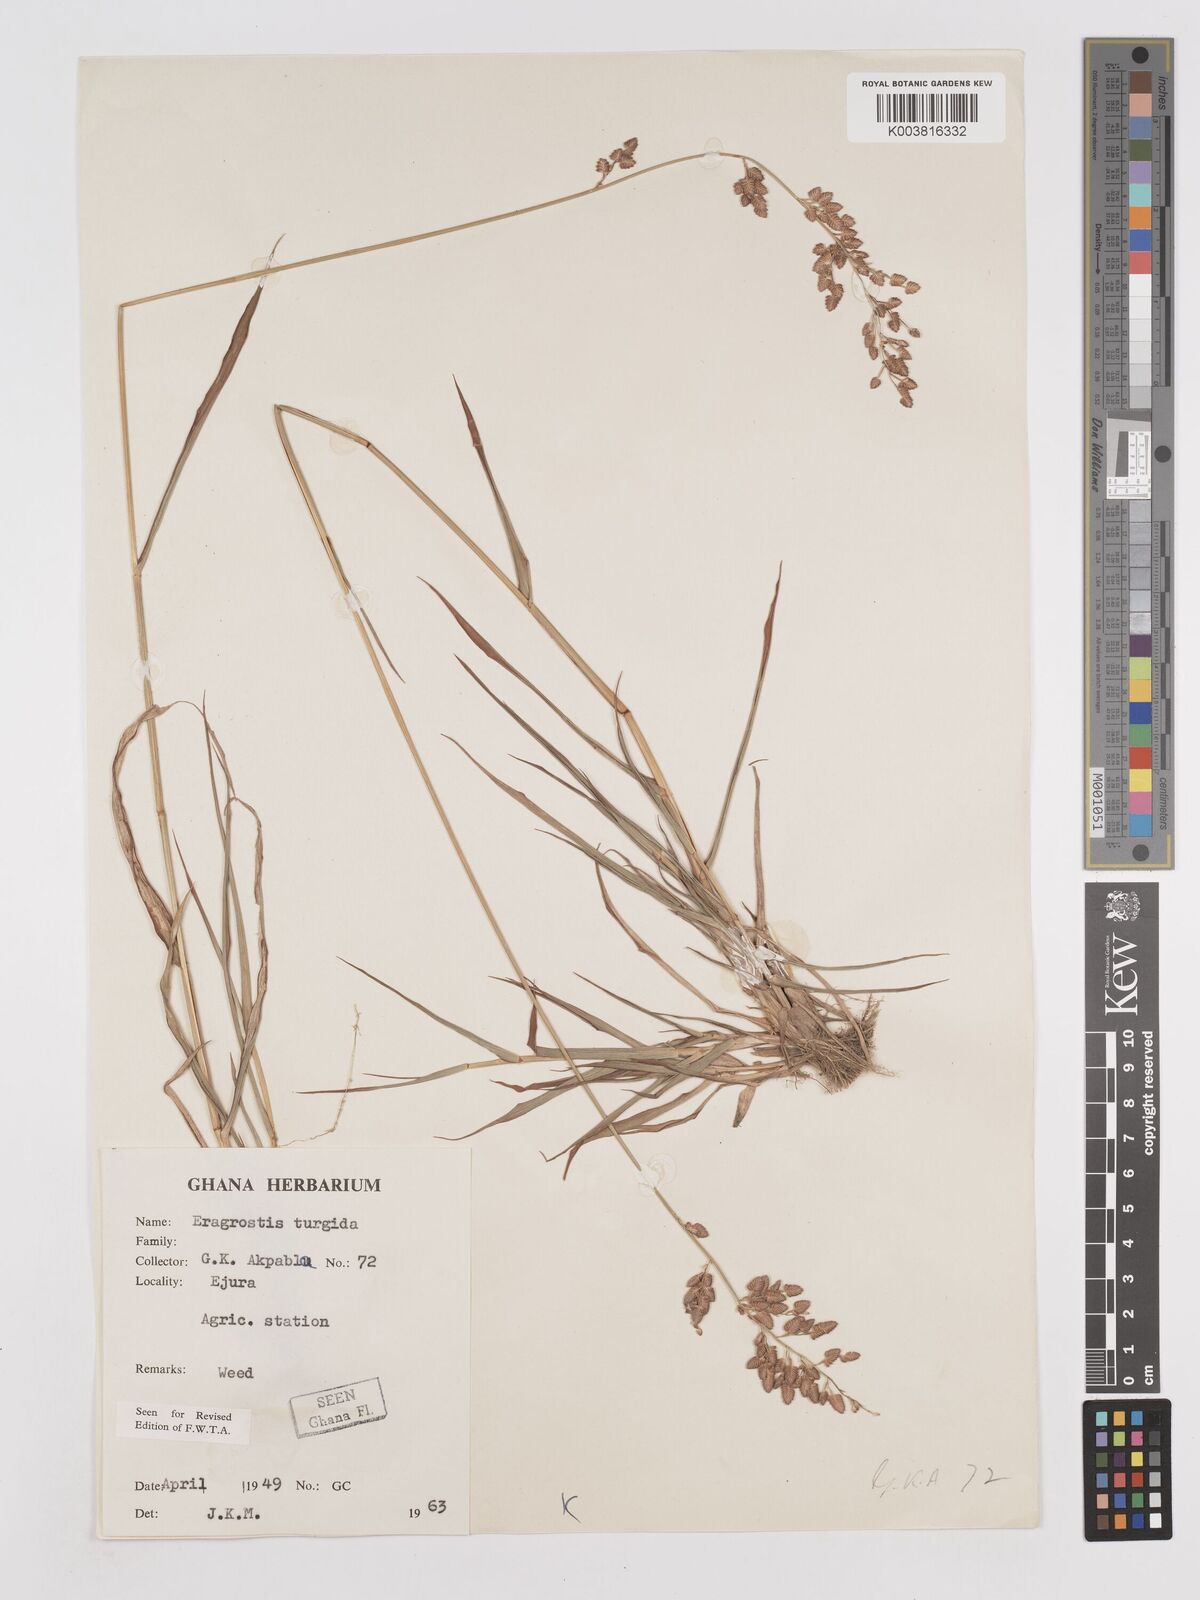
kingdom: Plantae
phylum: Tracheophyta
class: Liliopsida
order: Poales
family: Poaceae
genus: Eragrostis
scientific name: Eragrostis turgida
